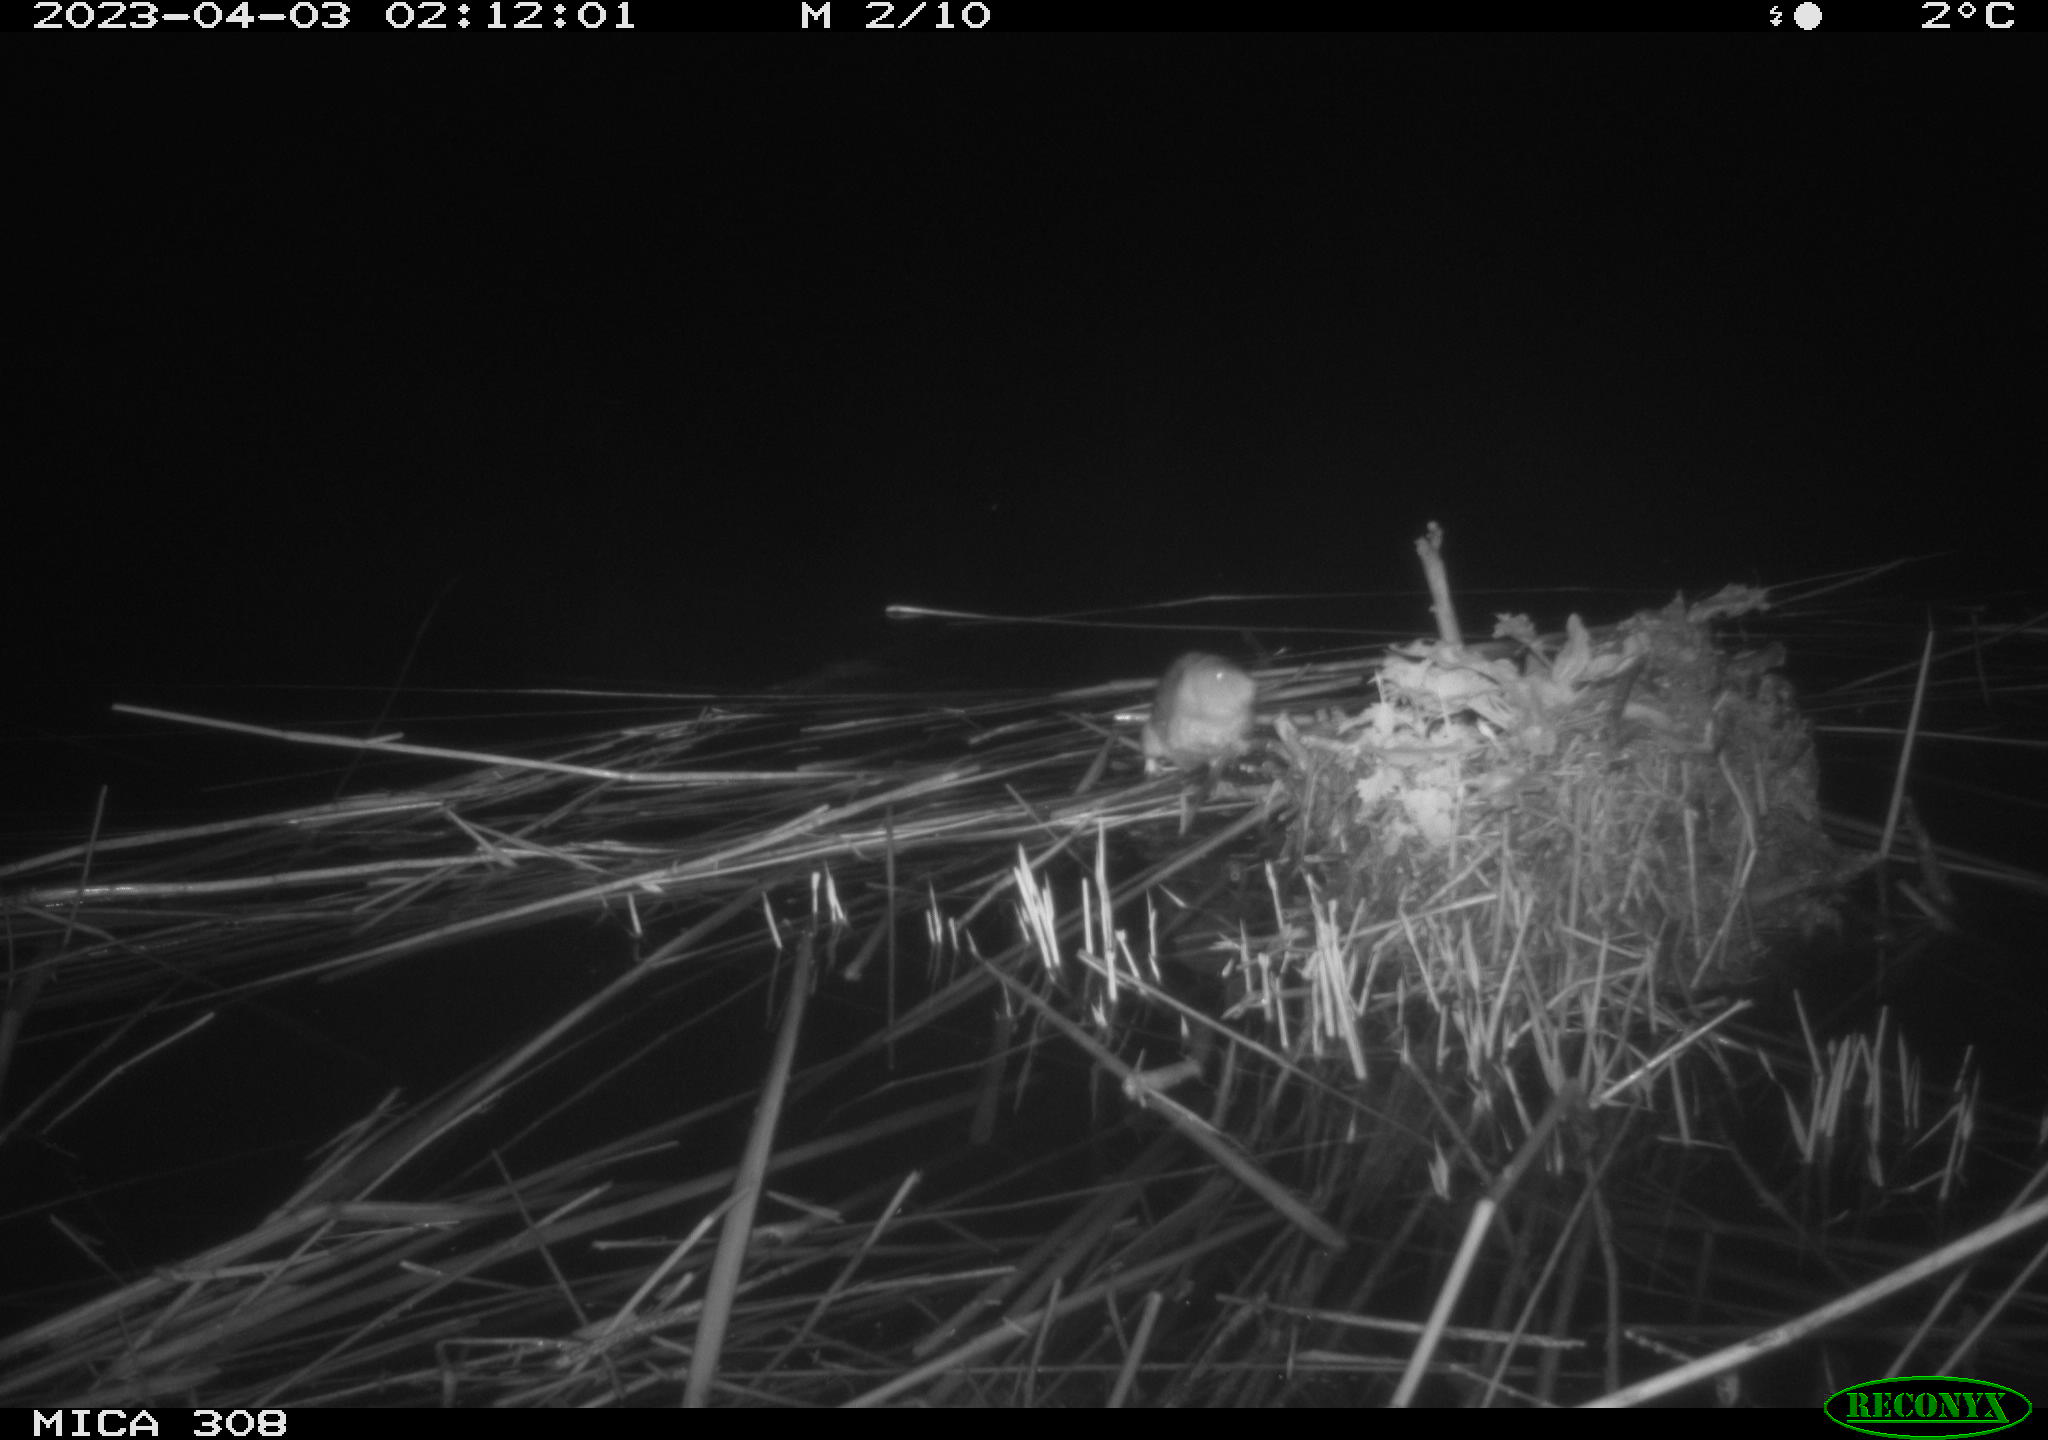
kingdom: Animalia
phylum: Chordata
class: Mammalia
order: Rodentia
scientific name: Rodentia
